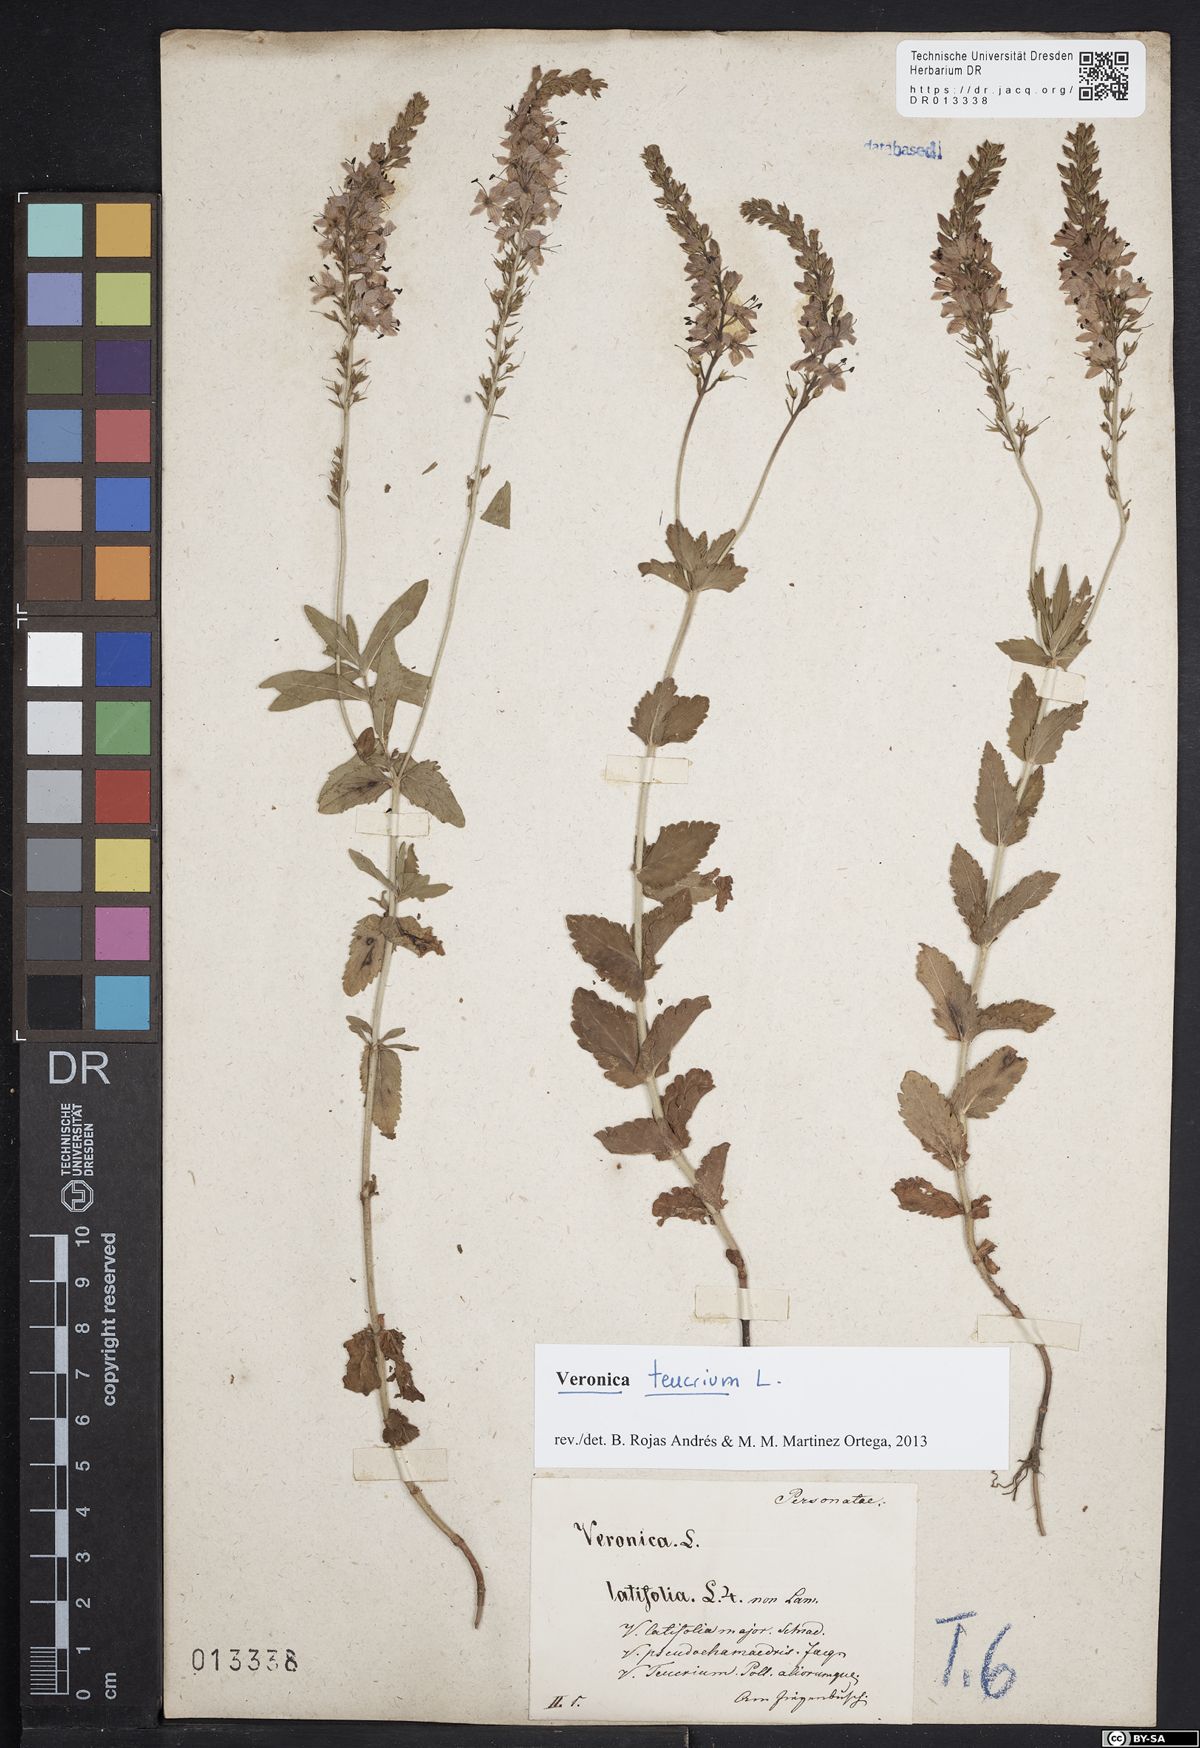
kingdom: Plantae
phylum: Tracheophyta
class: Magnoliopsida
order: Lamiales
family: Plantaginaceae
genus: Veronica
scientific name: Veronica teucrium
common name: Large speedwell
